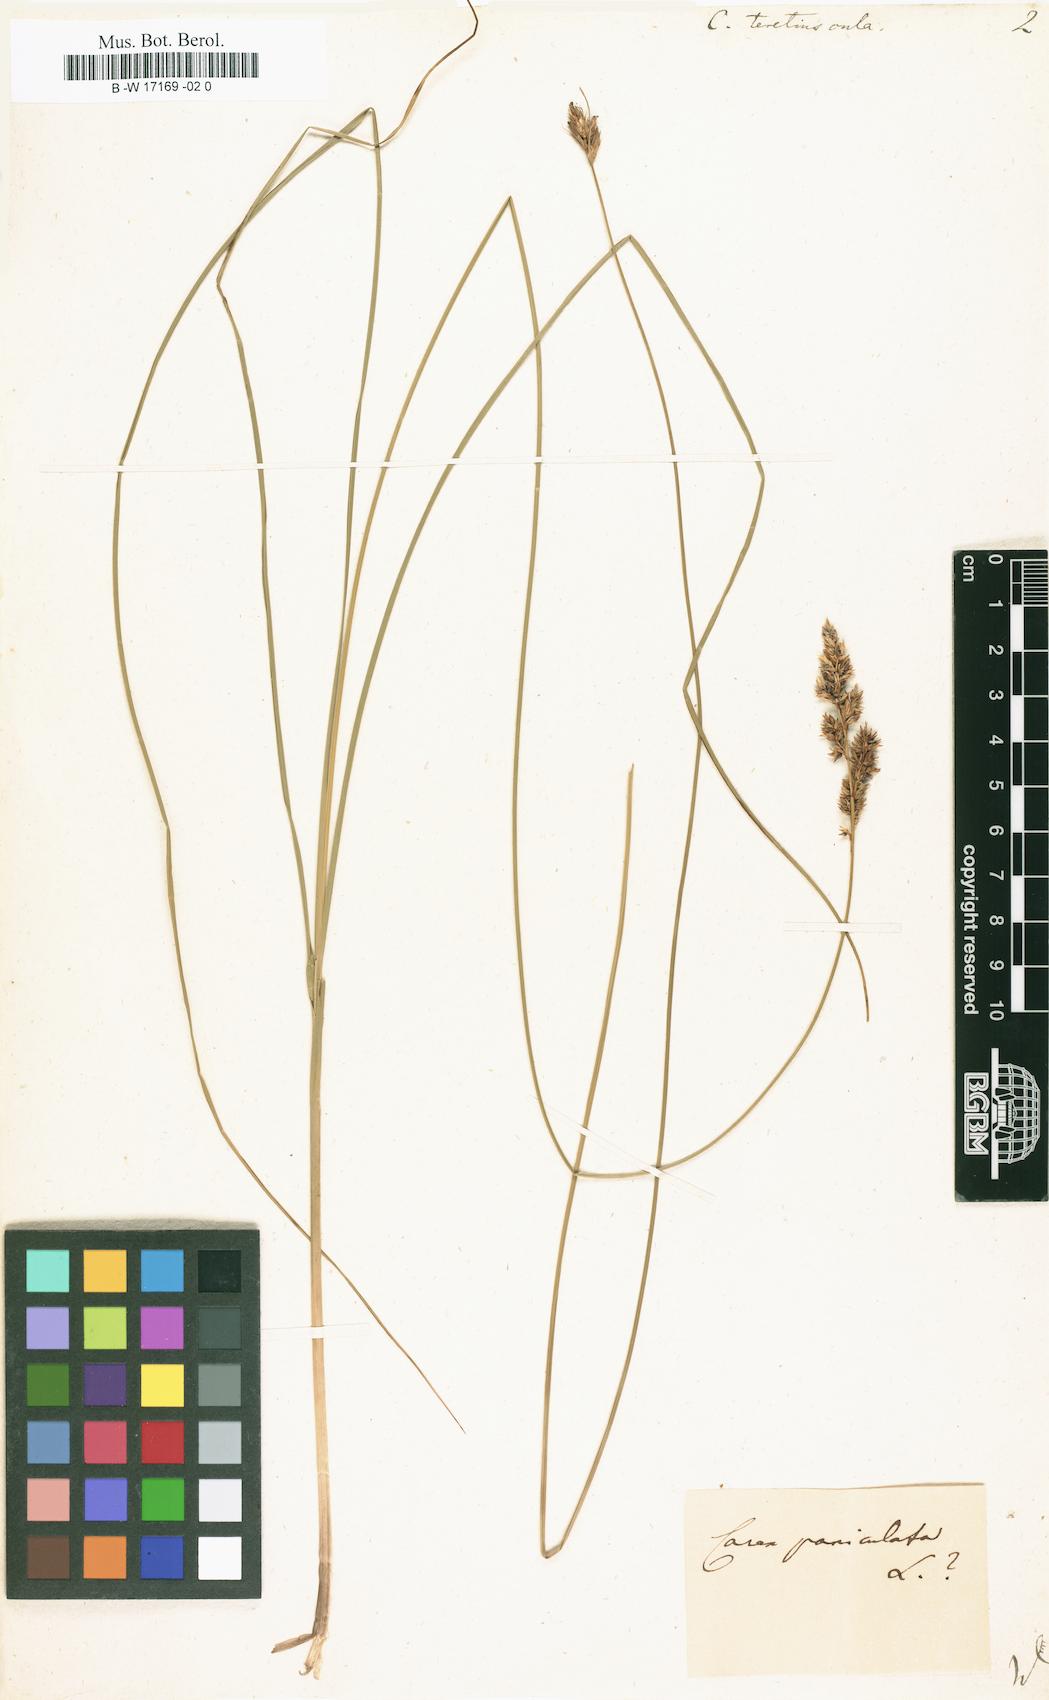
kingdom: Plantae
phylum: Tracheophyta
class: Liliopsida
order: Poales
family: Cyperaceae
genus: Carex
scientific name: Carex diandra
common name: Lesser tussock-sedge
